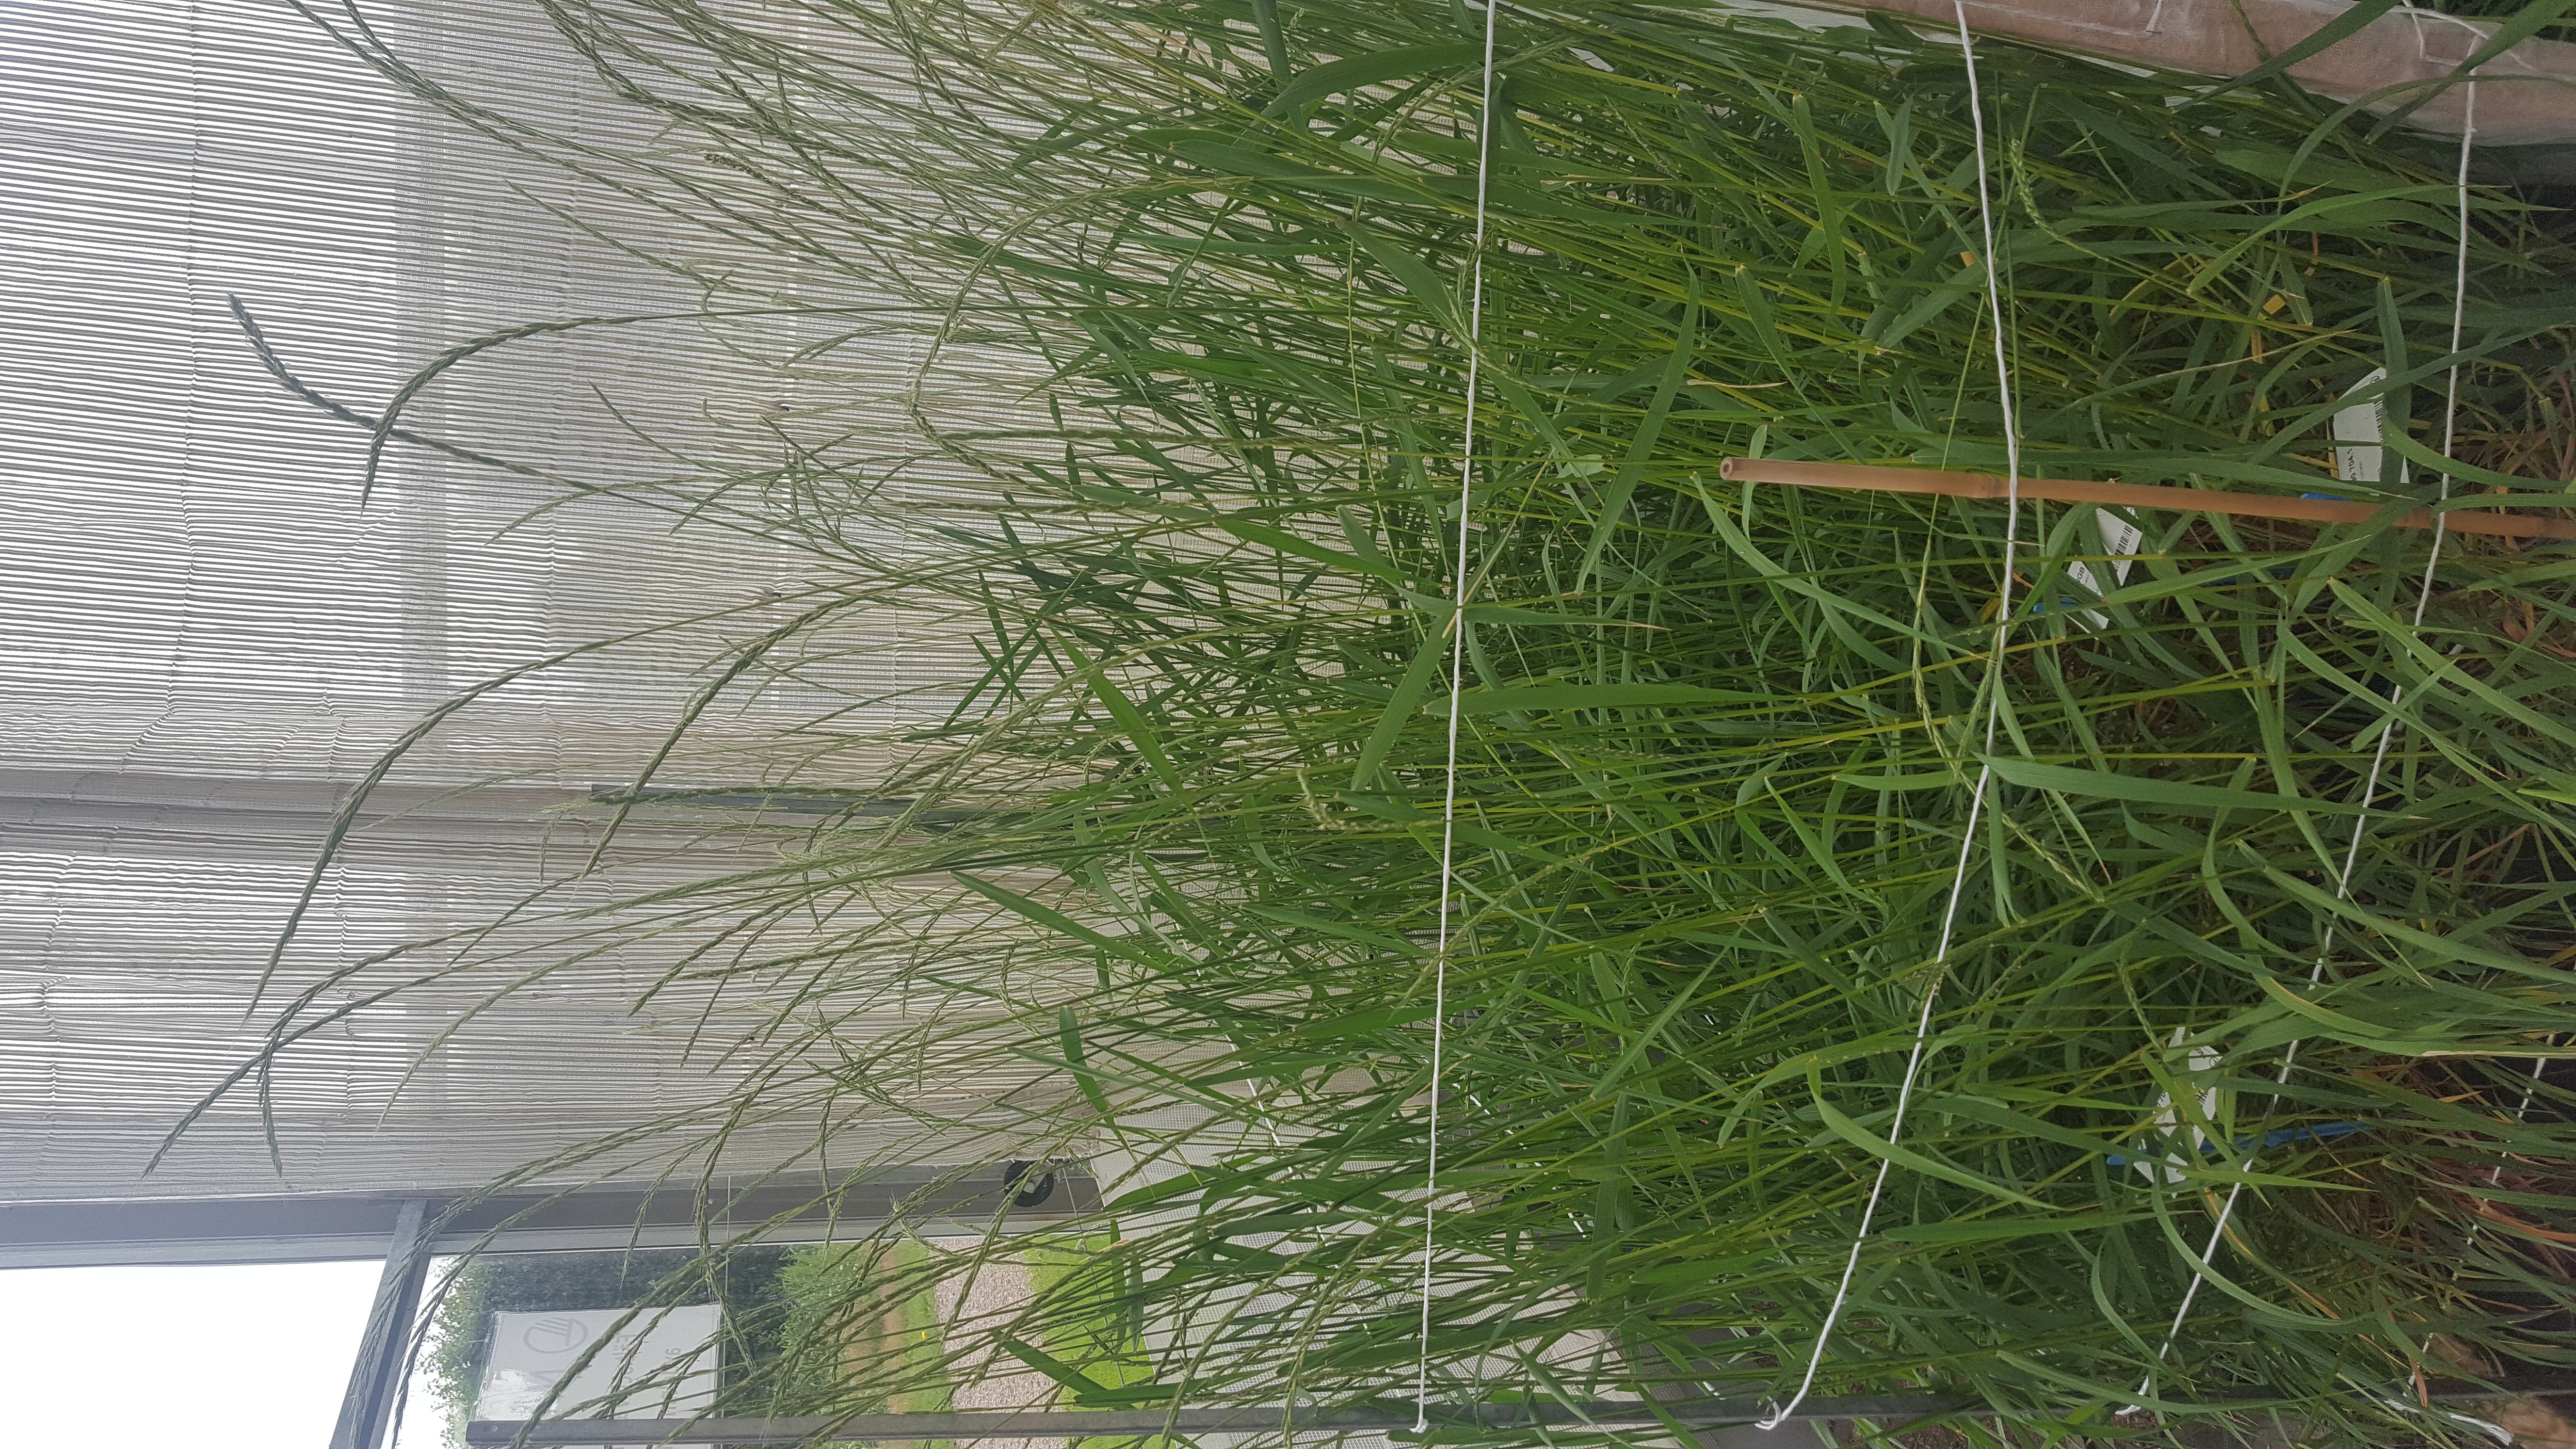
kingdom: Plantae
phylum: Tracheophyta
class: Liliopsida
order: Poales
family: Poaceae
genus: Elymus
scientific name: Elymus caninus
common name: Bearded couch
